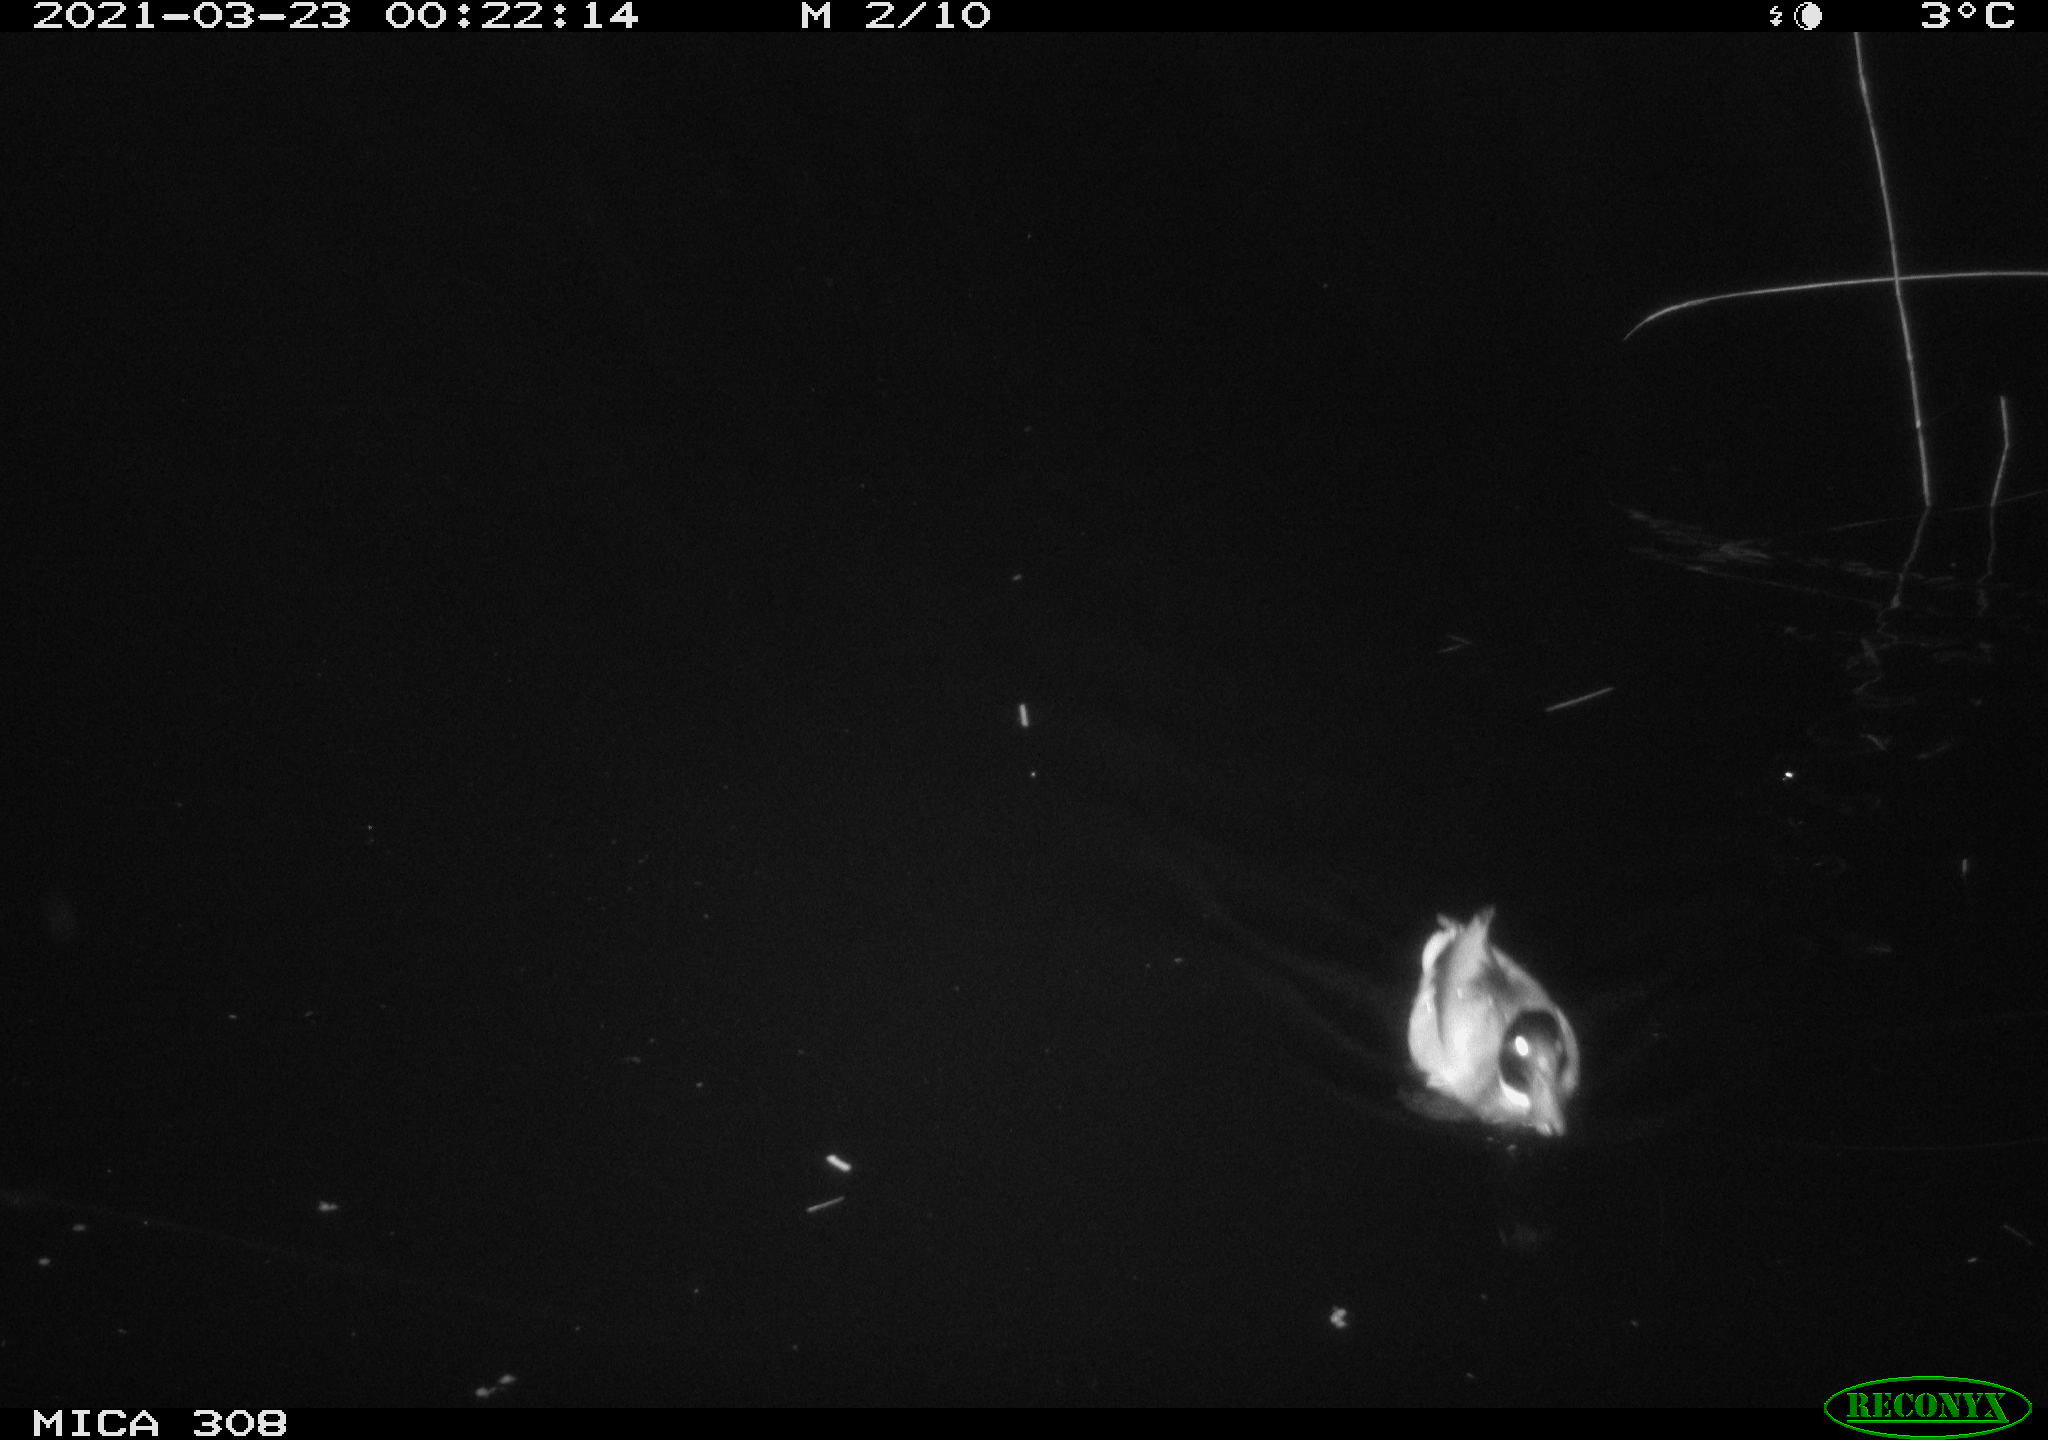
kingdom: Animalia
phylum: Chordata
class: Aves
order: Anseriformes
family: Anatidae
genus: Anas
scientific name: Anas platyrhynchos
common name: Mallard
